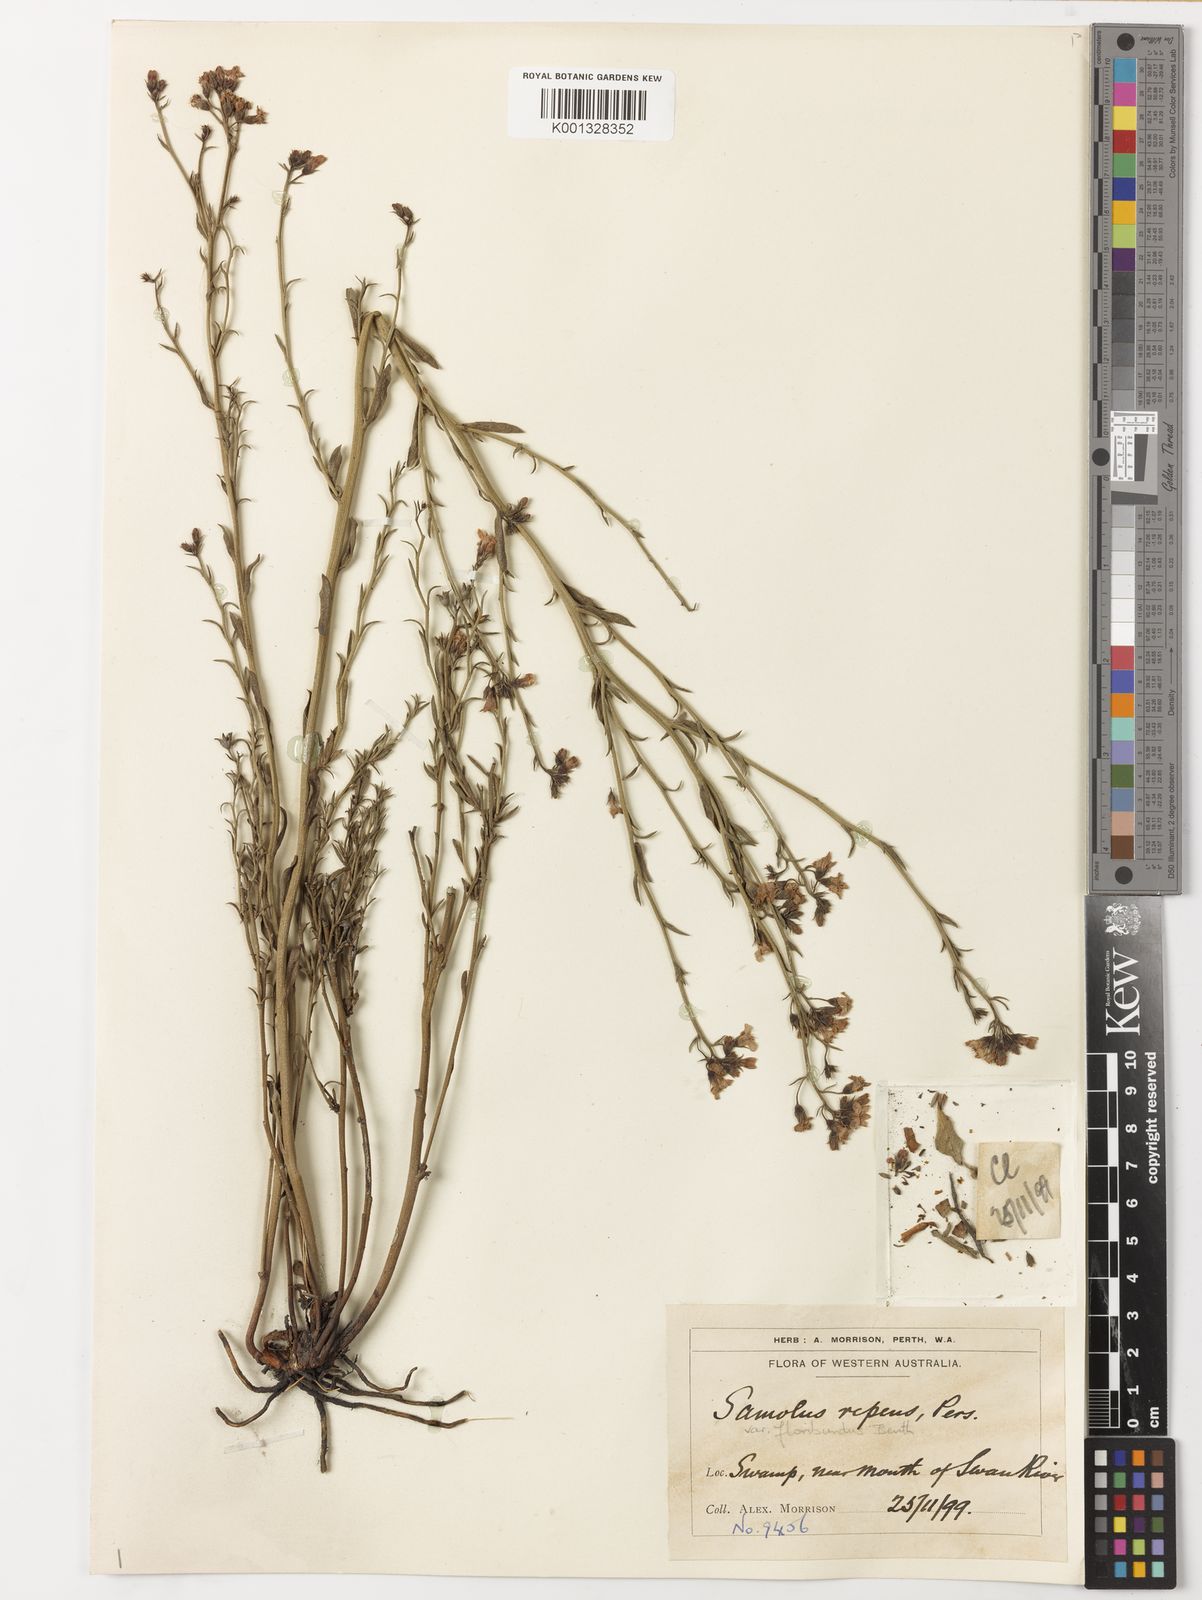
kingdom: Plantae
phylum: Tracheophyta
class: Magnoliopsida
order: Ericales
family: Primulaceae
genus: Samolus
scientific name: Samolus
